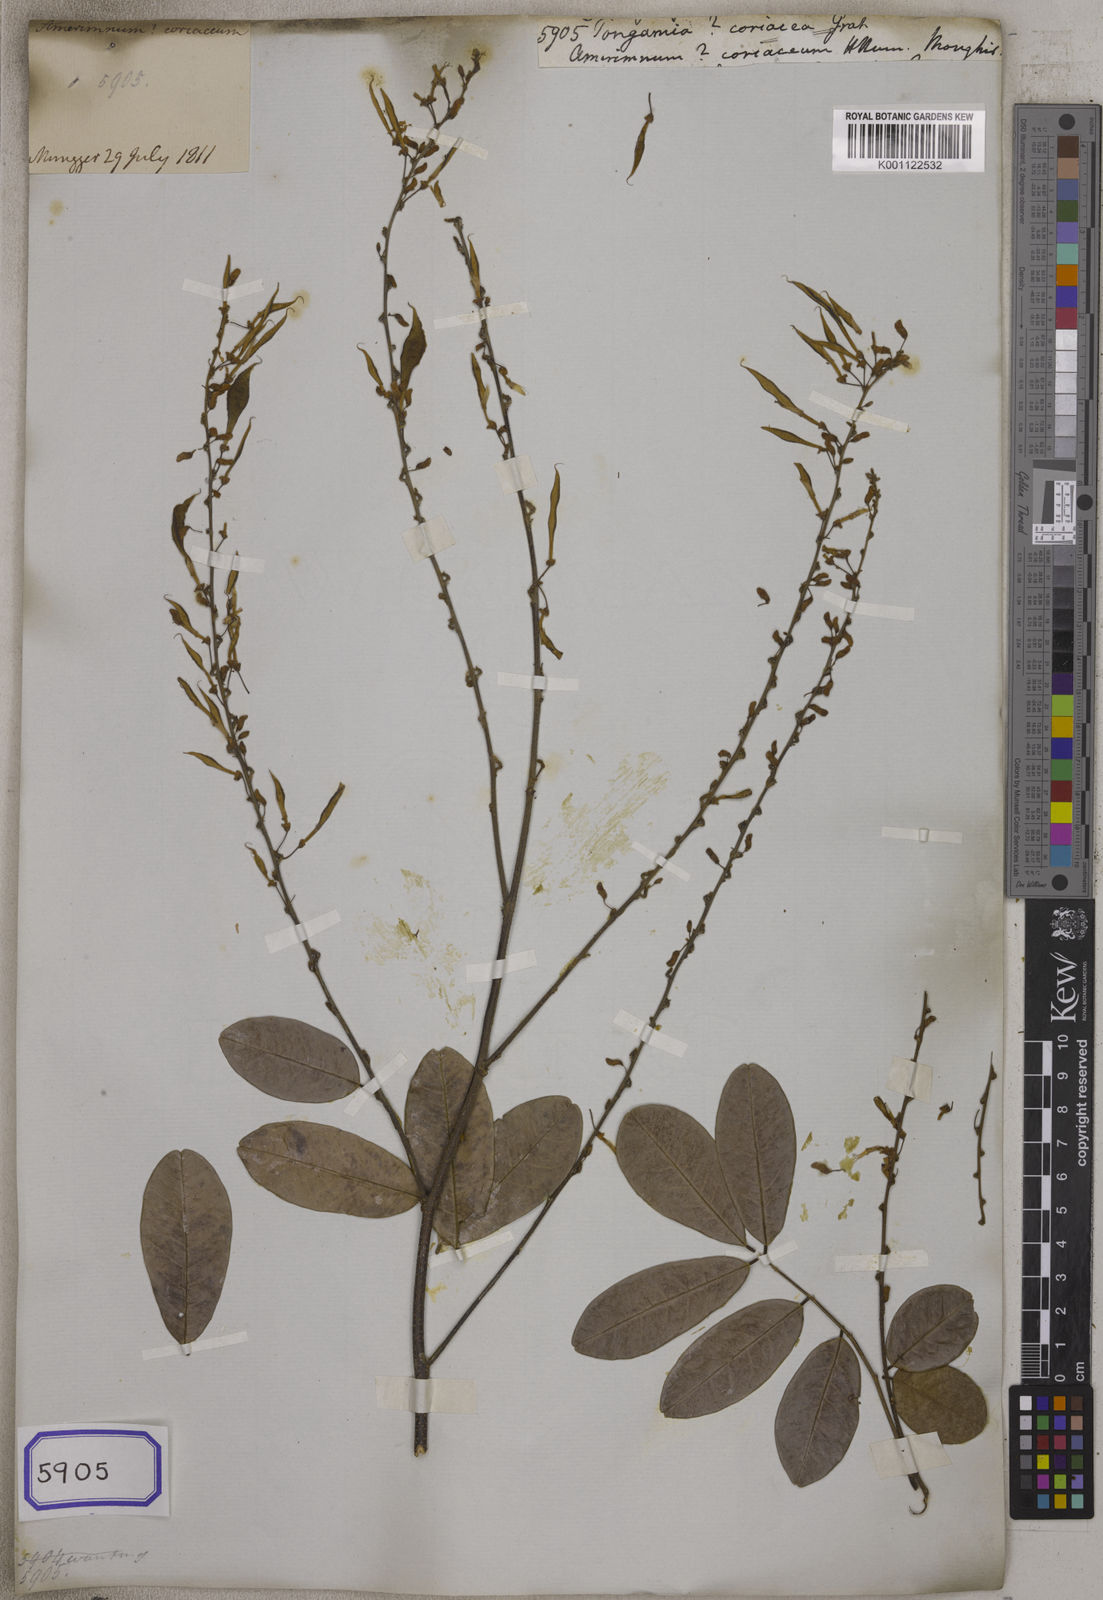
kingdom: Plantae
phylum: Tracheophyta
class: Magnoliopsida
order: Fabales
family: Fabaceae
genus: Brachypterum
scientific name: Brachypterum scandens
